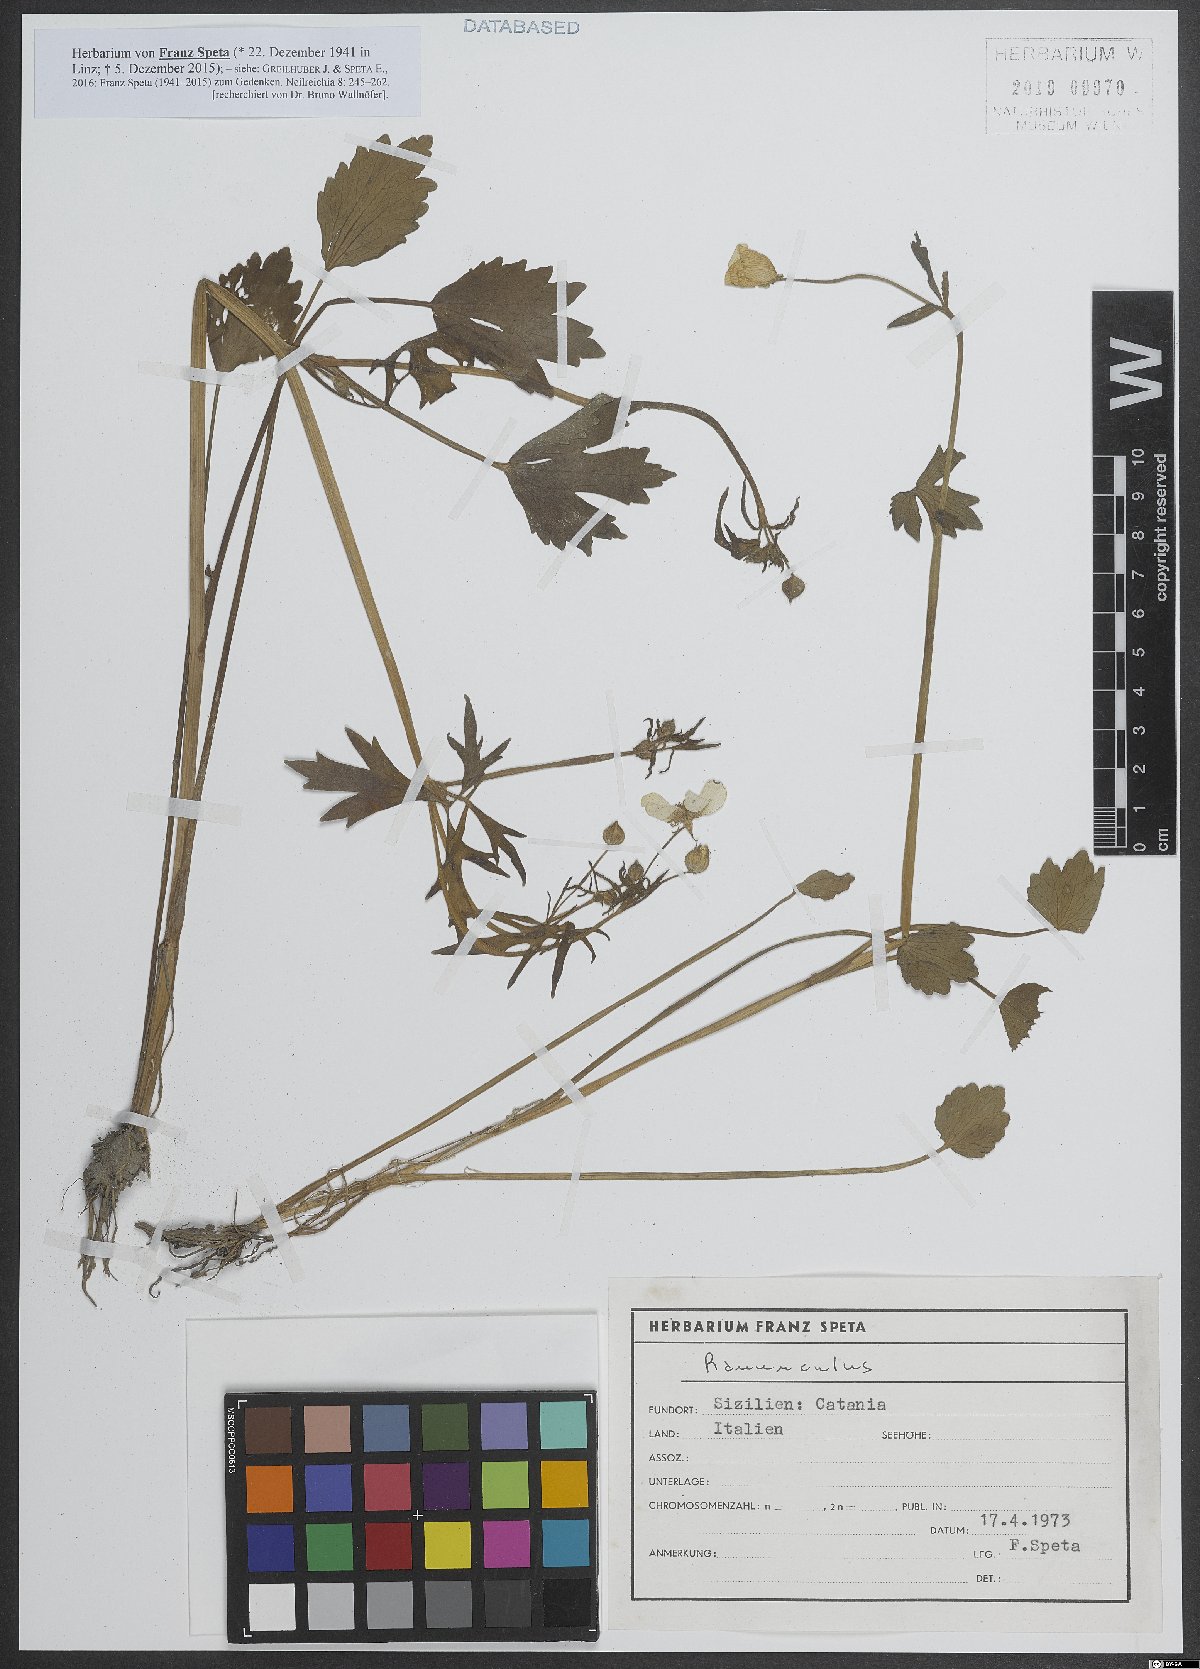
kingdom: Plantae
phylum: Tracheophyta
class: Magnoliopsida
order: Ranunculales
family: Ranunculaceae
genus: Ranunculus
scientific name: Ranunculus
